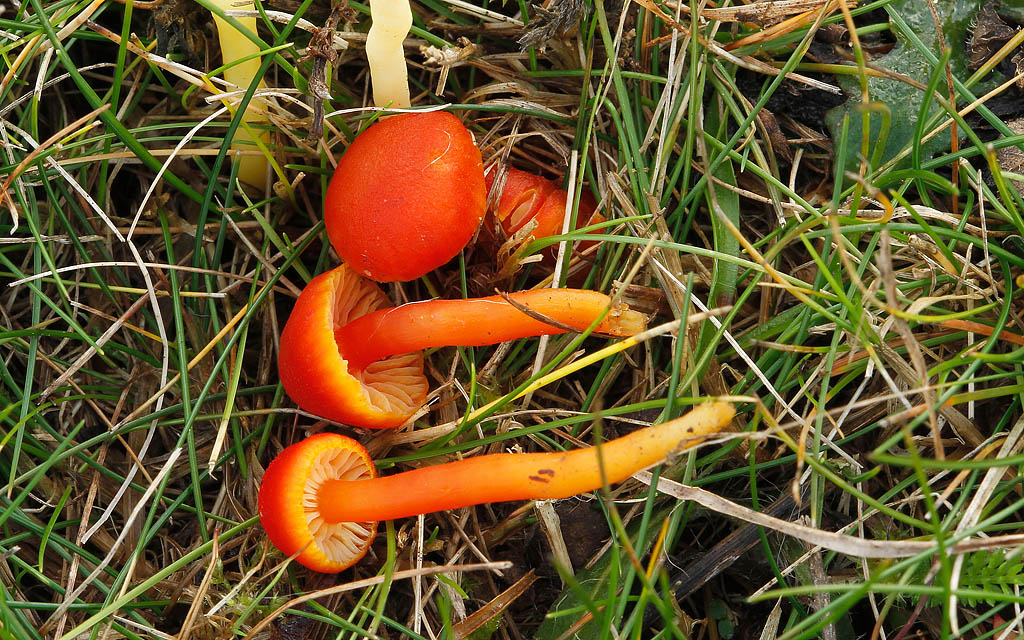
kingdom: Fungi
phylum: Basidiomycota
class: Agaricomycetes
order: Agaricales
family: Hygrophoraceae
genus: Hygrocybe
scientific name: Hygrocybe miniata
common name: mønje-vokshat
